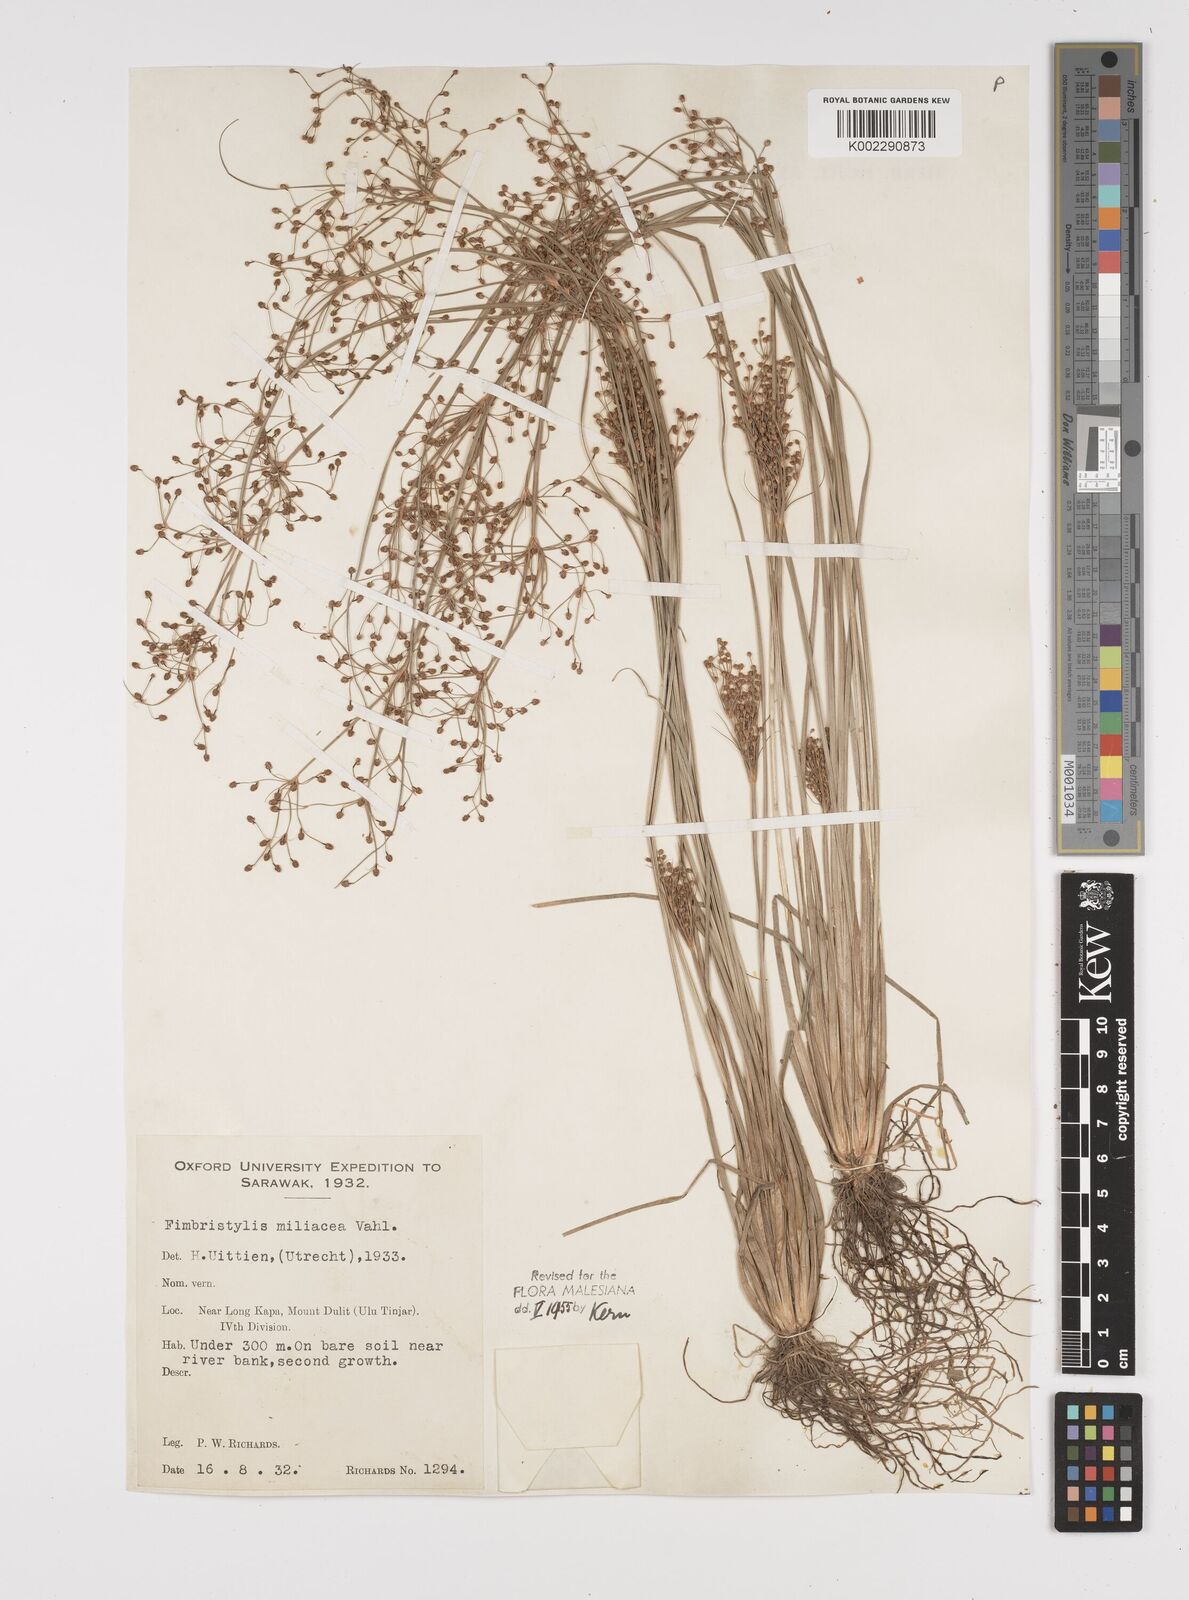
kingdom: Plantae
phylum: Tracheophyta
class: Liliopsida
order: Poales
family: Cyperaceae
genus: Fimbristylis
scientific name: Fimbristylis littoralis
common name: Fimbry
